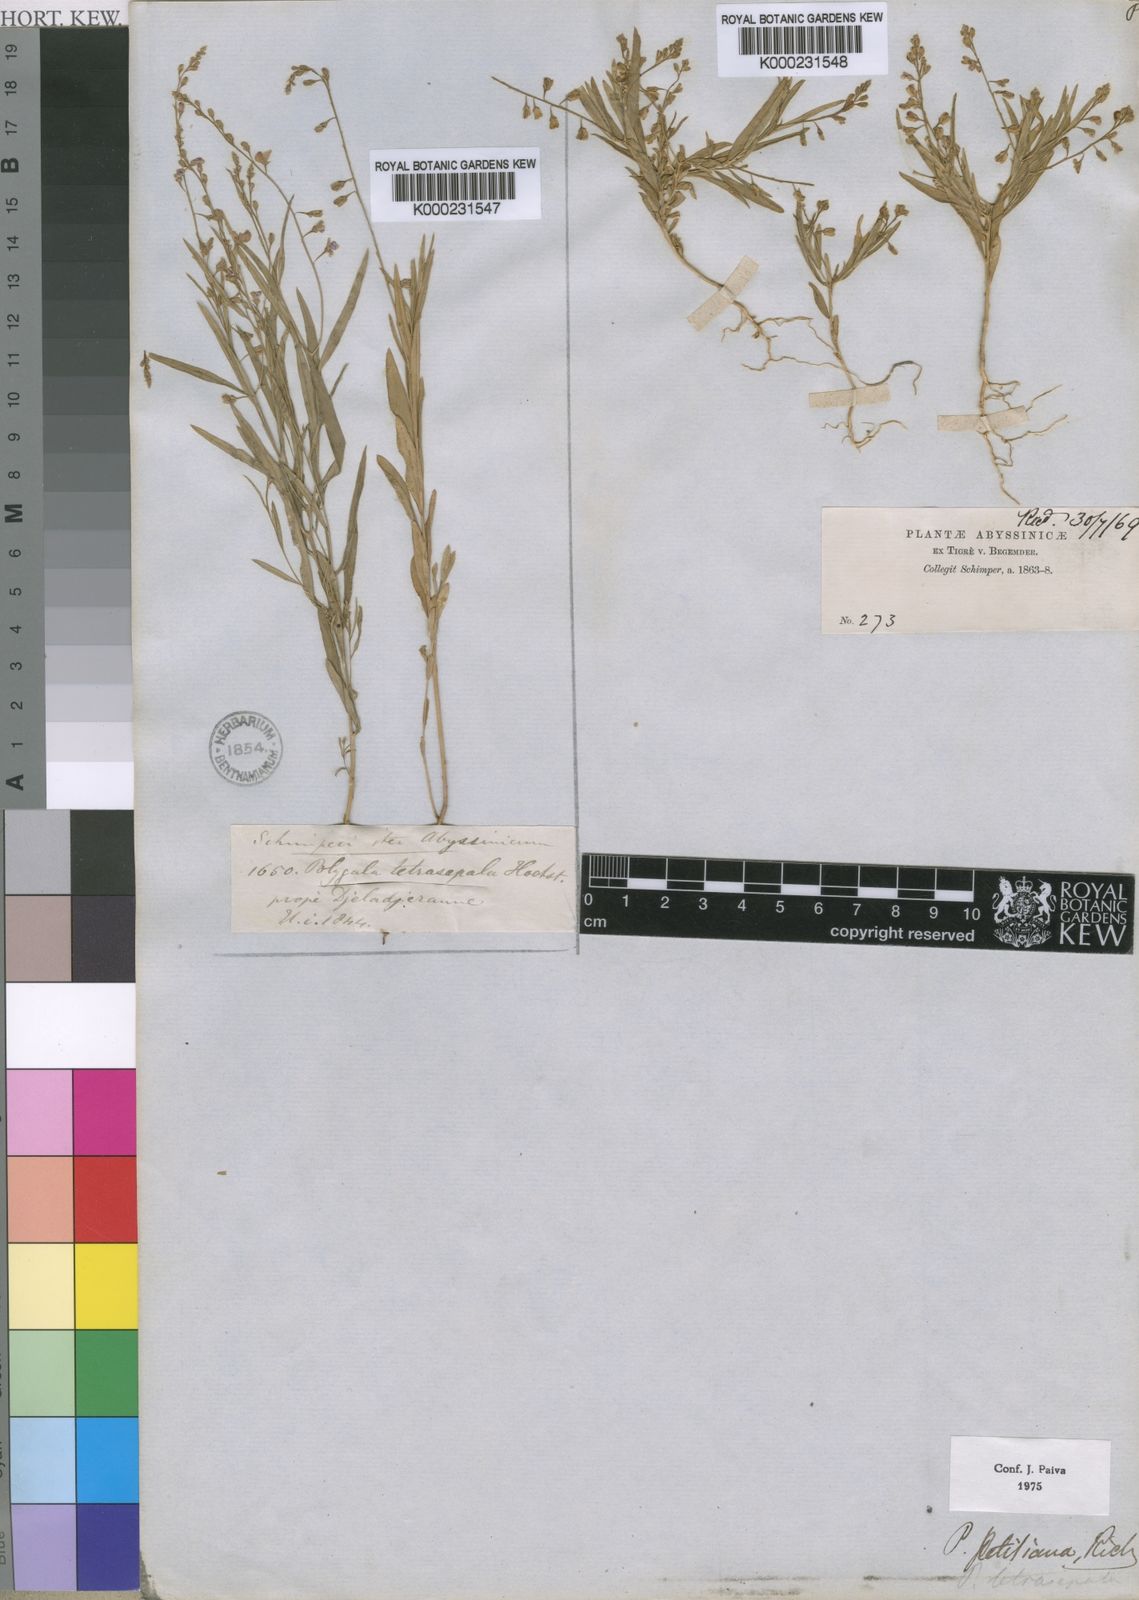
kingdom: Plantae
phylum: Tracheophyta
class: Magnoliopsida
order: Fabales
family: Polygalaceae
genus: Polygala
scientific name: Polygala petitiana
